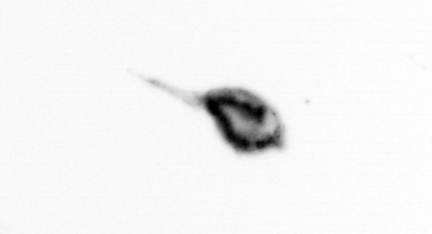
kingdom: Animalia
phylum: Arthropoda
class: Copepoda
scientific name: Copepoda
